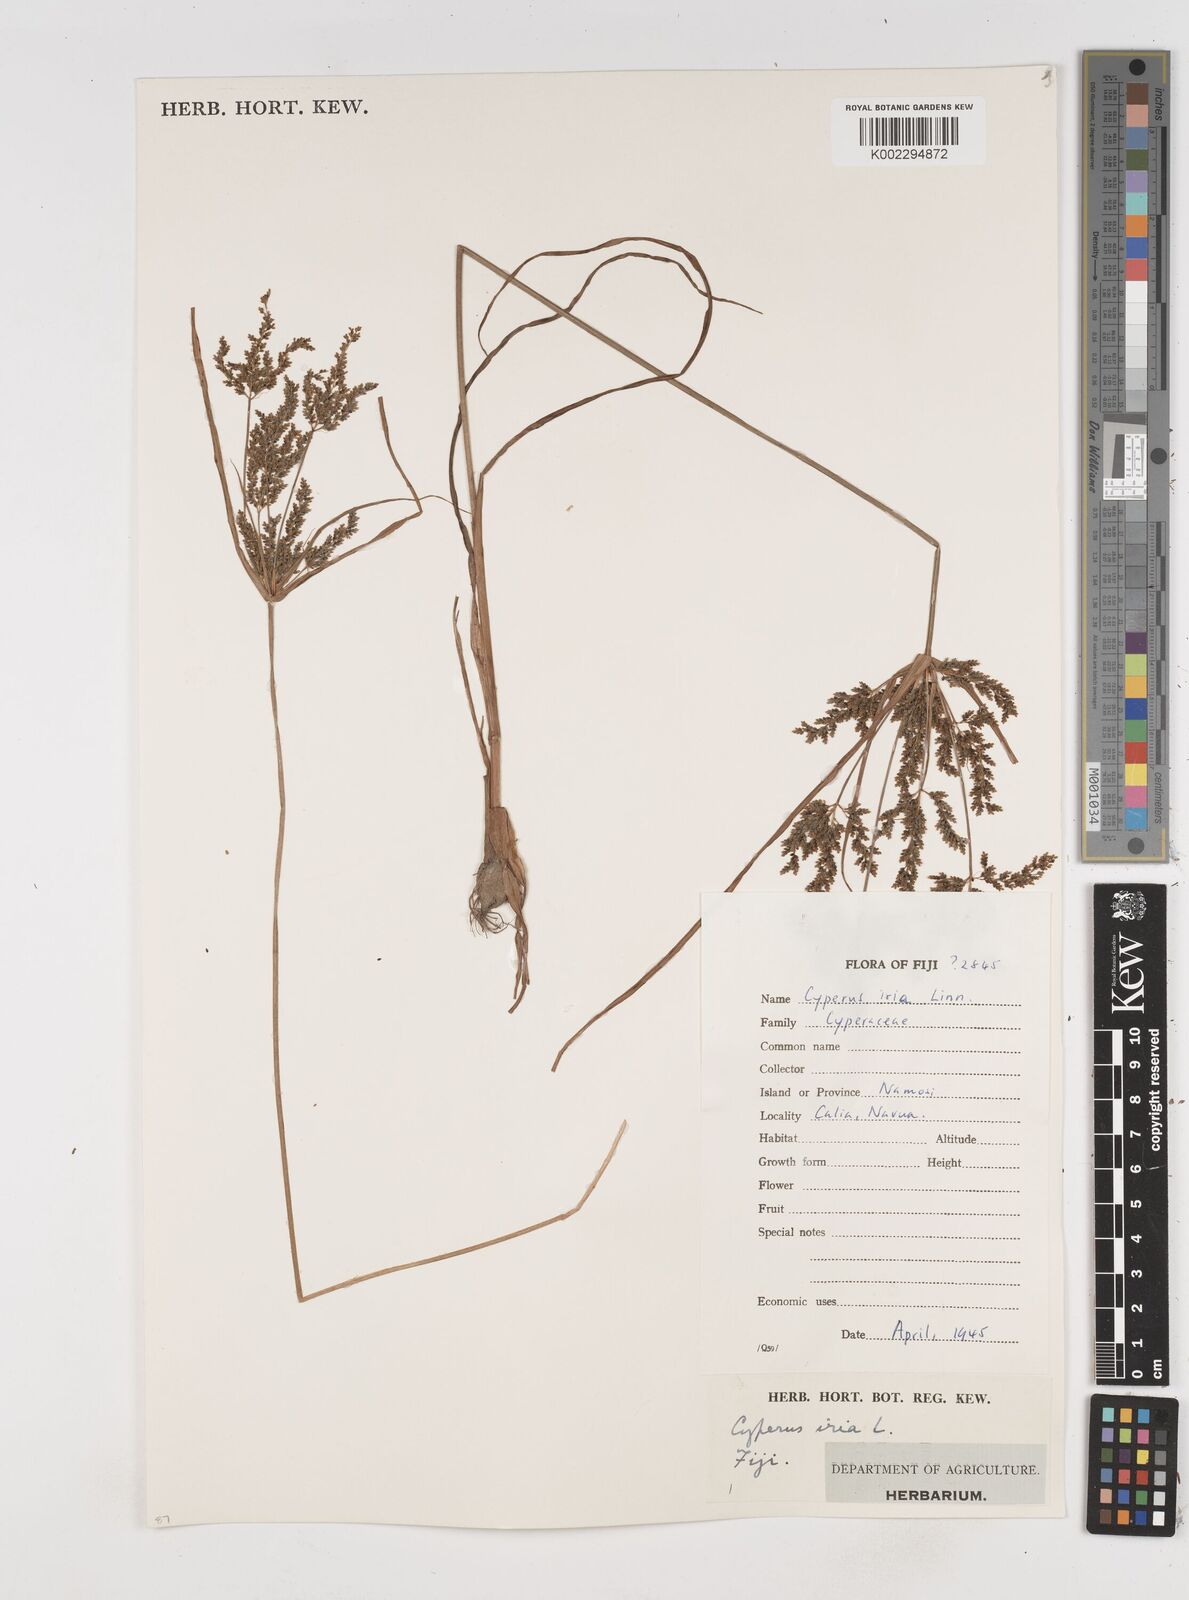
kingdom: Plantae
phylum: Tracheophyta
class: Liliopsida
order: Poales
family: Cyperaceae
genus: Cyperus
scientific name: Cyperus iria
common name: Ricefield flatsedge
